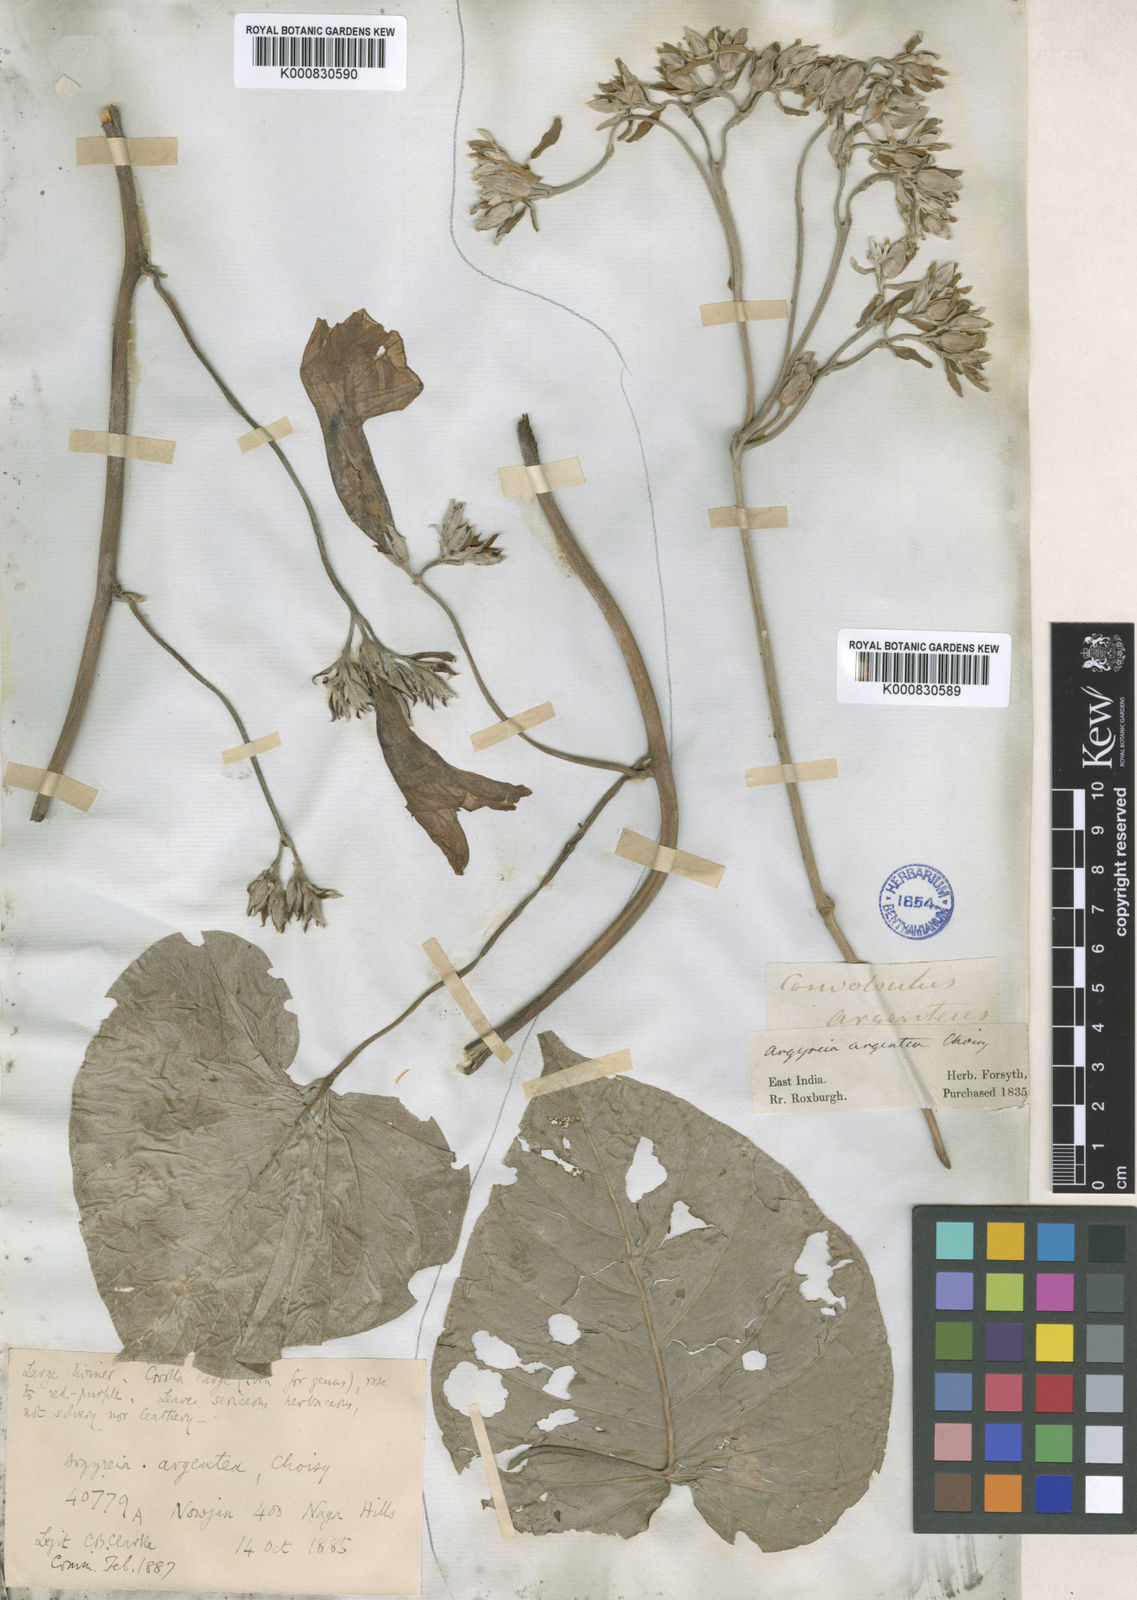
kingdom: Plantae
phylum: Tracheophyta
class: Magnoliopsida
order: Solanales
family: Convolvulaceae
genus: Argyreia
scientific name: Argyreia
